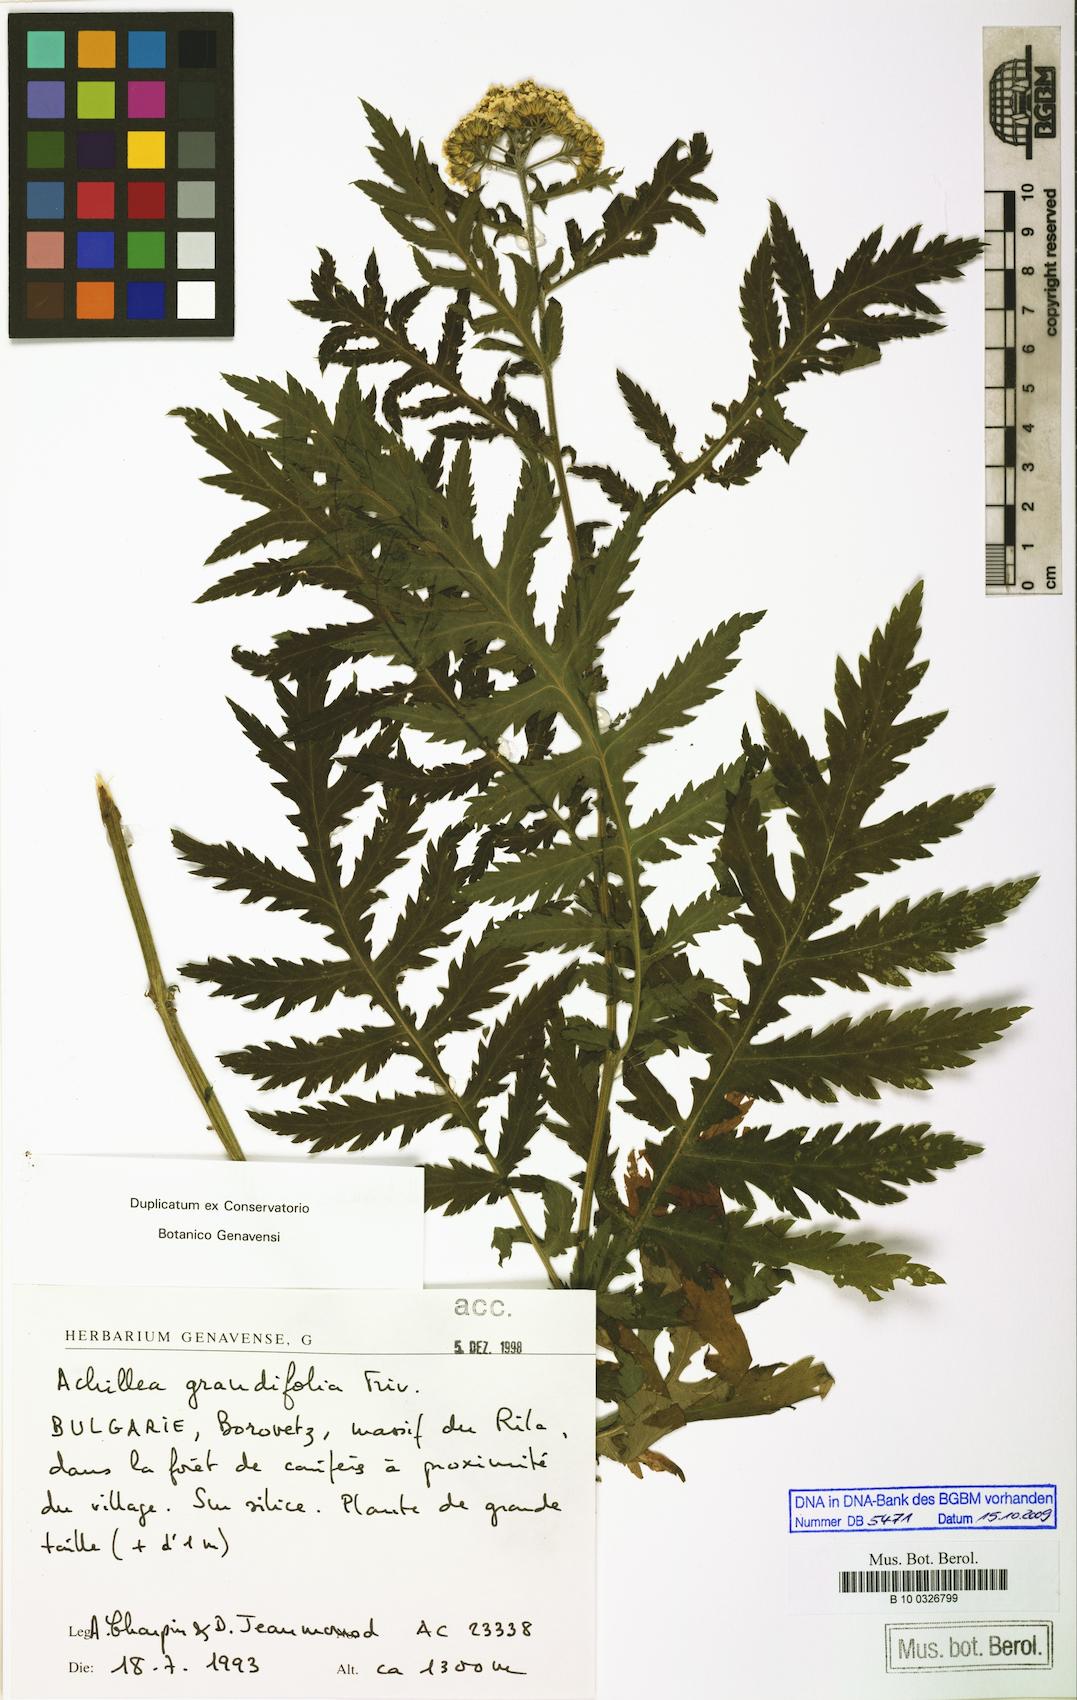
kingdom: Plantae
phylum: Tracheophyta
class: Magnoliopsida
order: Asterales
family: Asteraceae
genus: Achillea
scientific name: Achillea grandifolia
